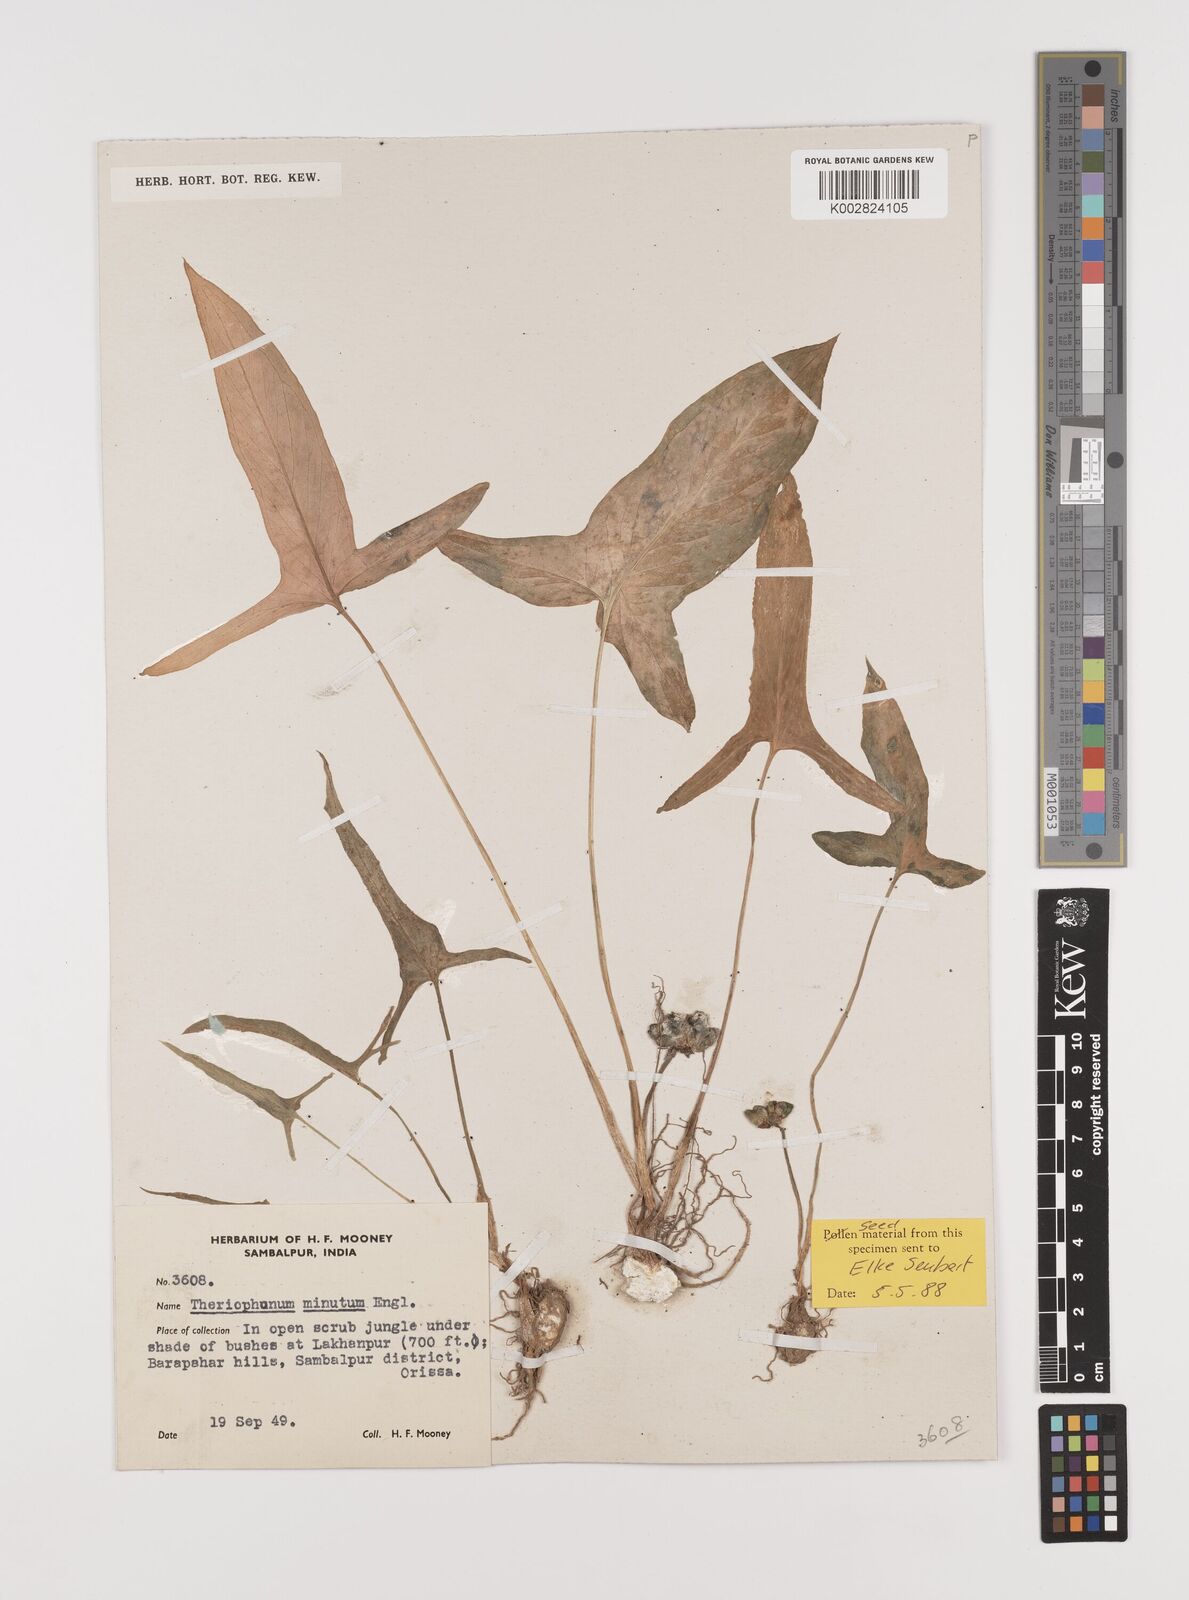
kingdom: Plantae
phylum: Tracheophyta
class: Liliopsida
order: Alismatales
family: Araceae
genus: Theriophonum
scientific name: Theriophonum minutum
